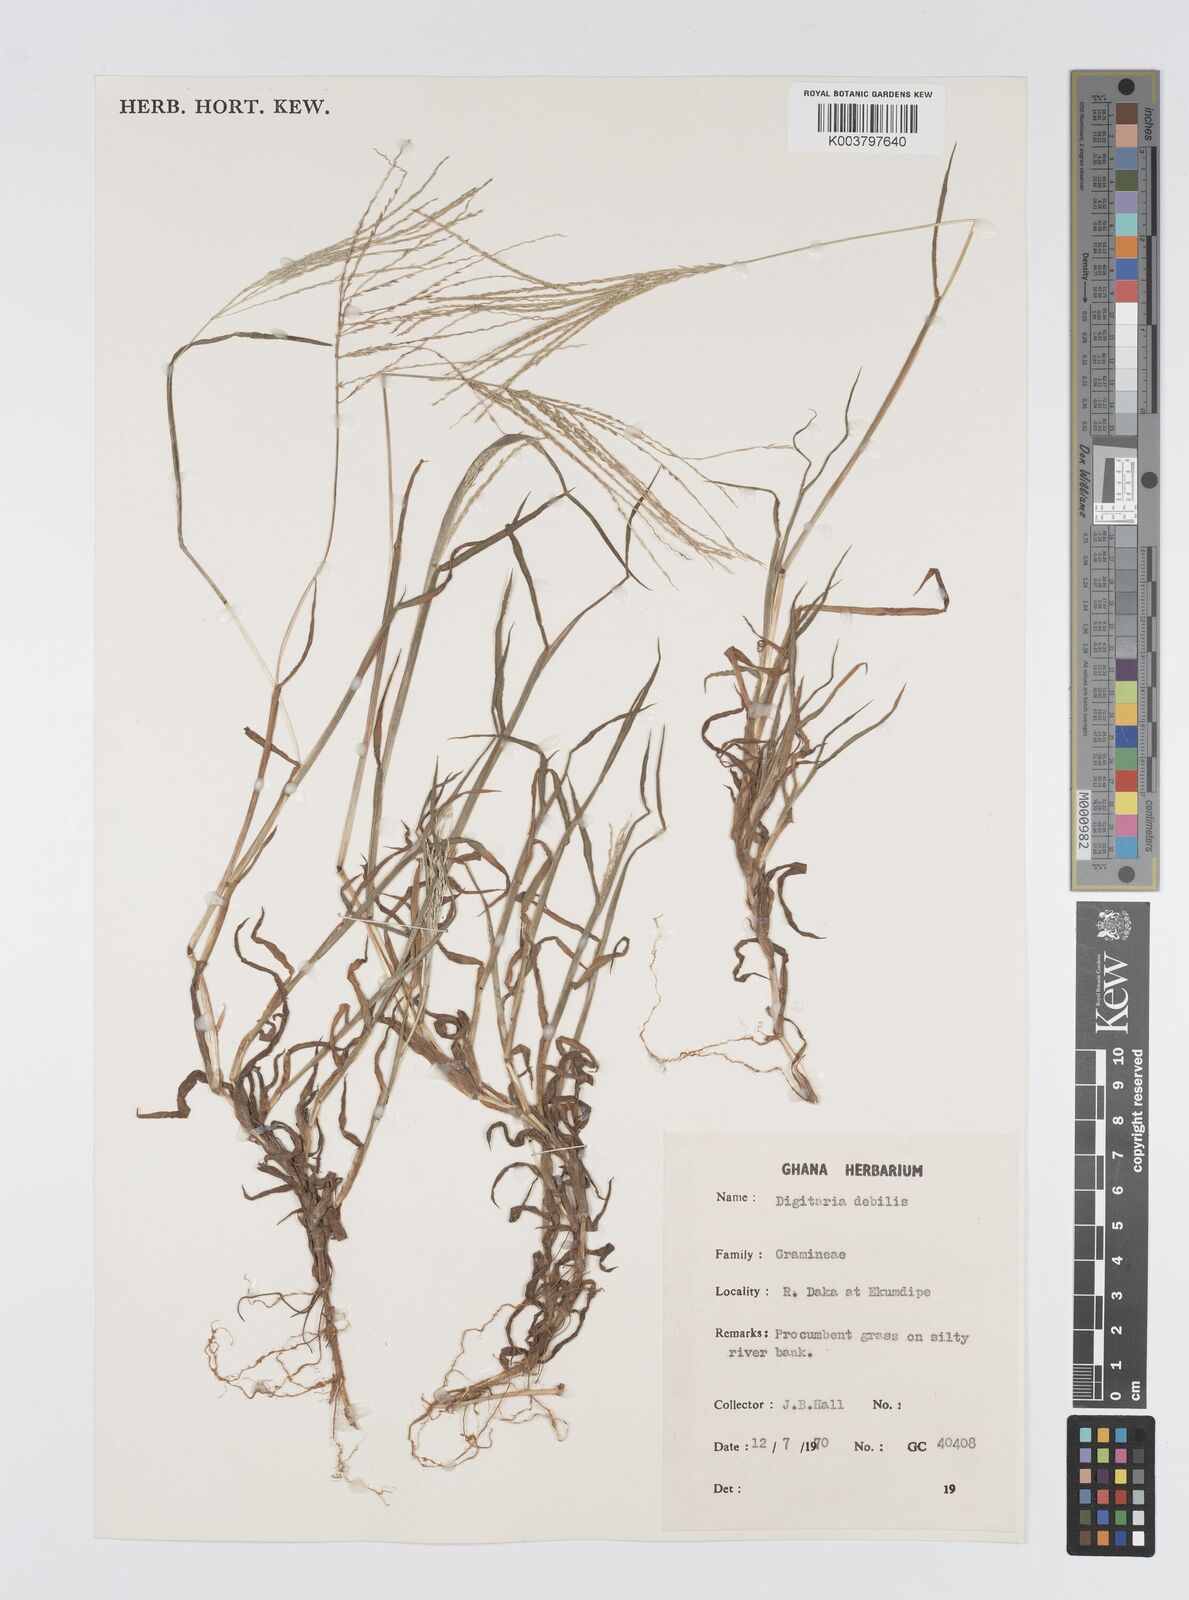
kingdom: Plantae
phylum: Tracheophyta
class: Liliopsida
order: Poales
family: Poaceae
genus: Digitaria
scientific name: Digitaria debilis
